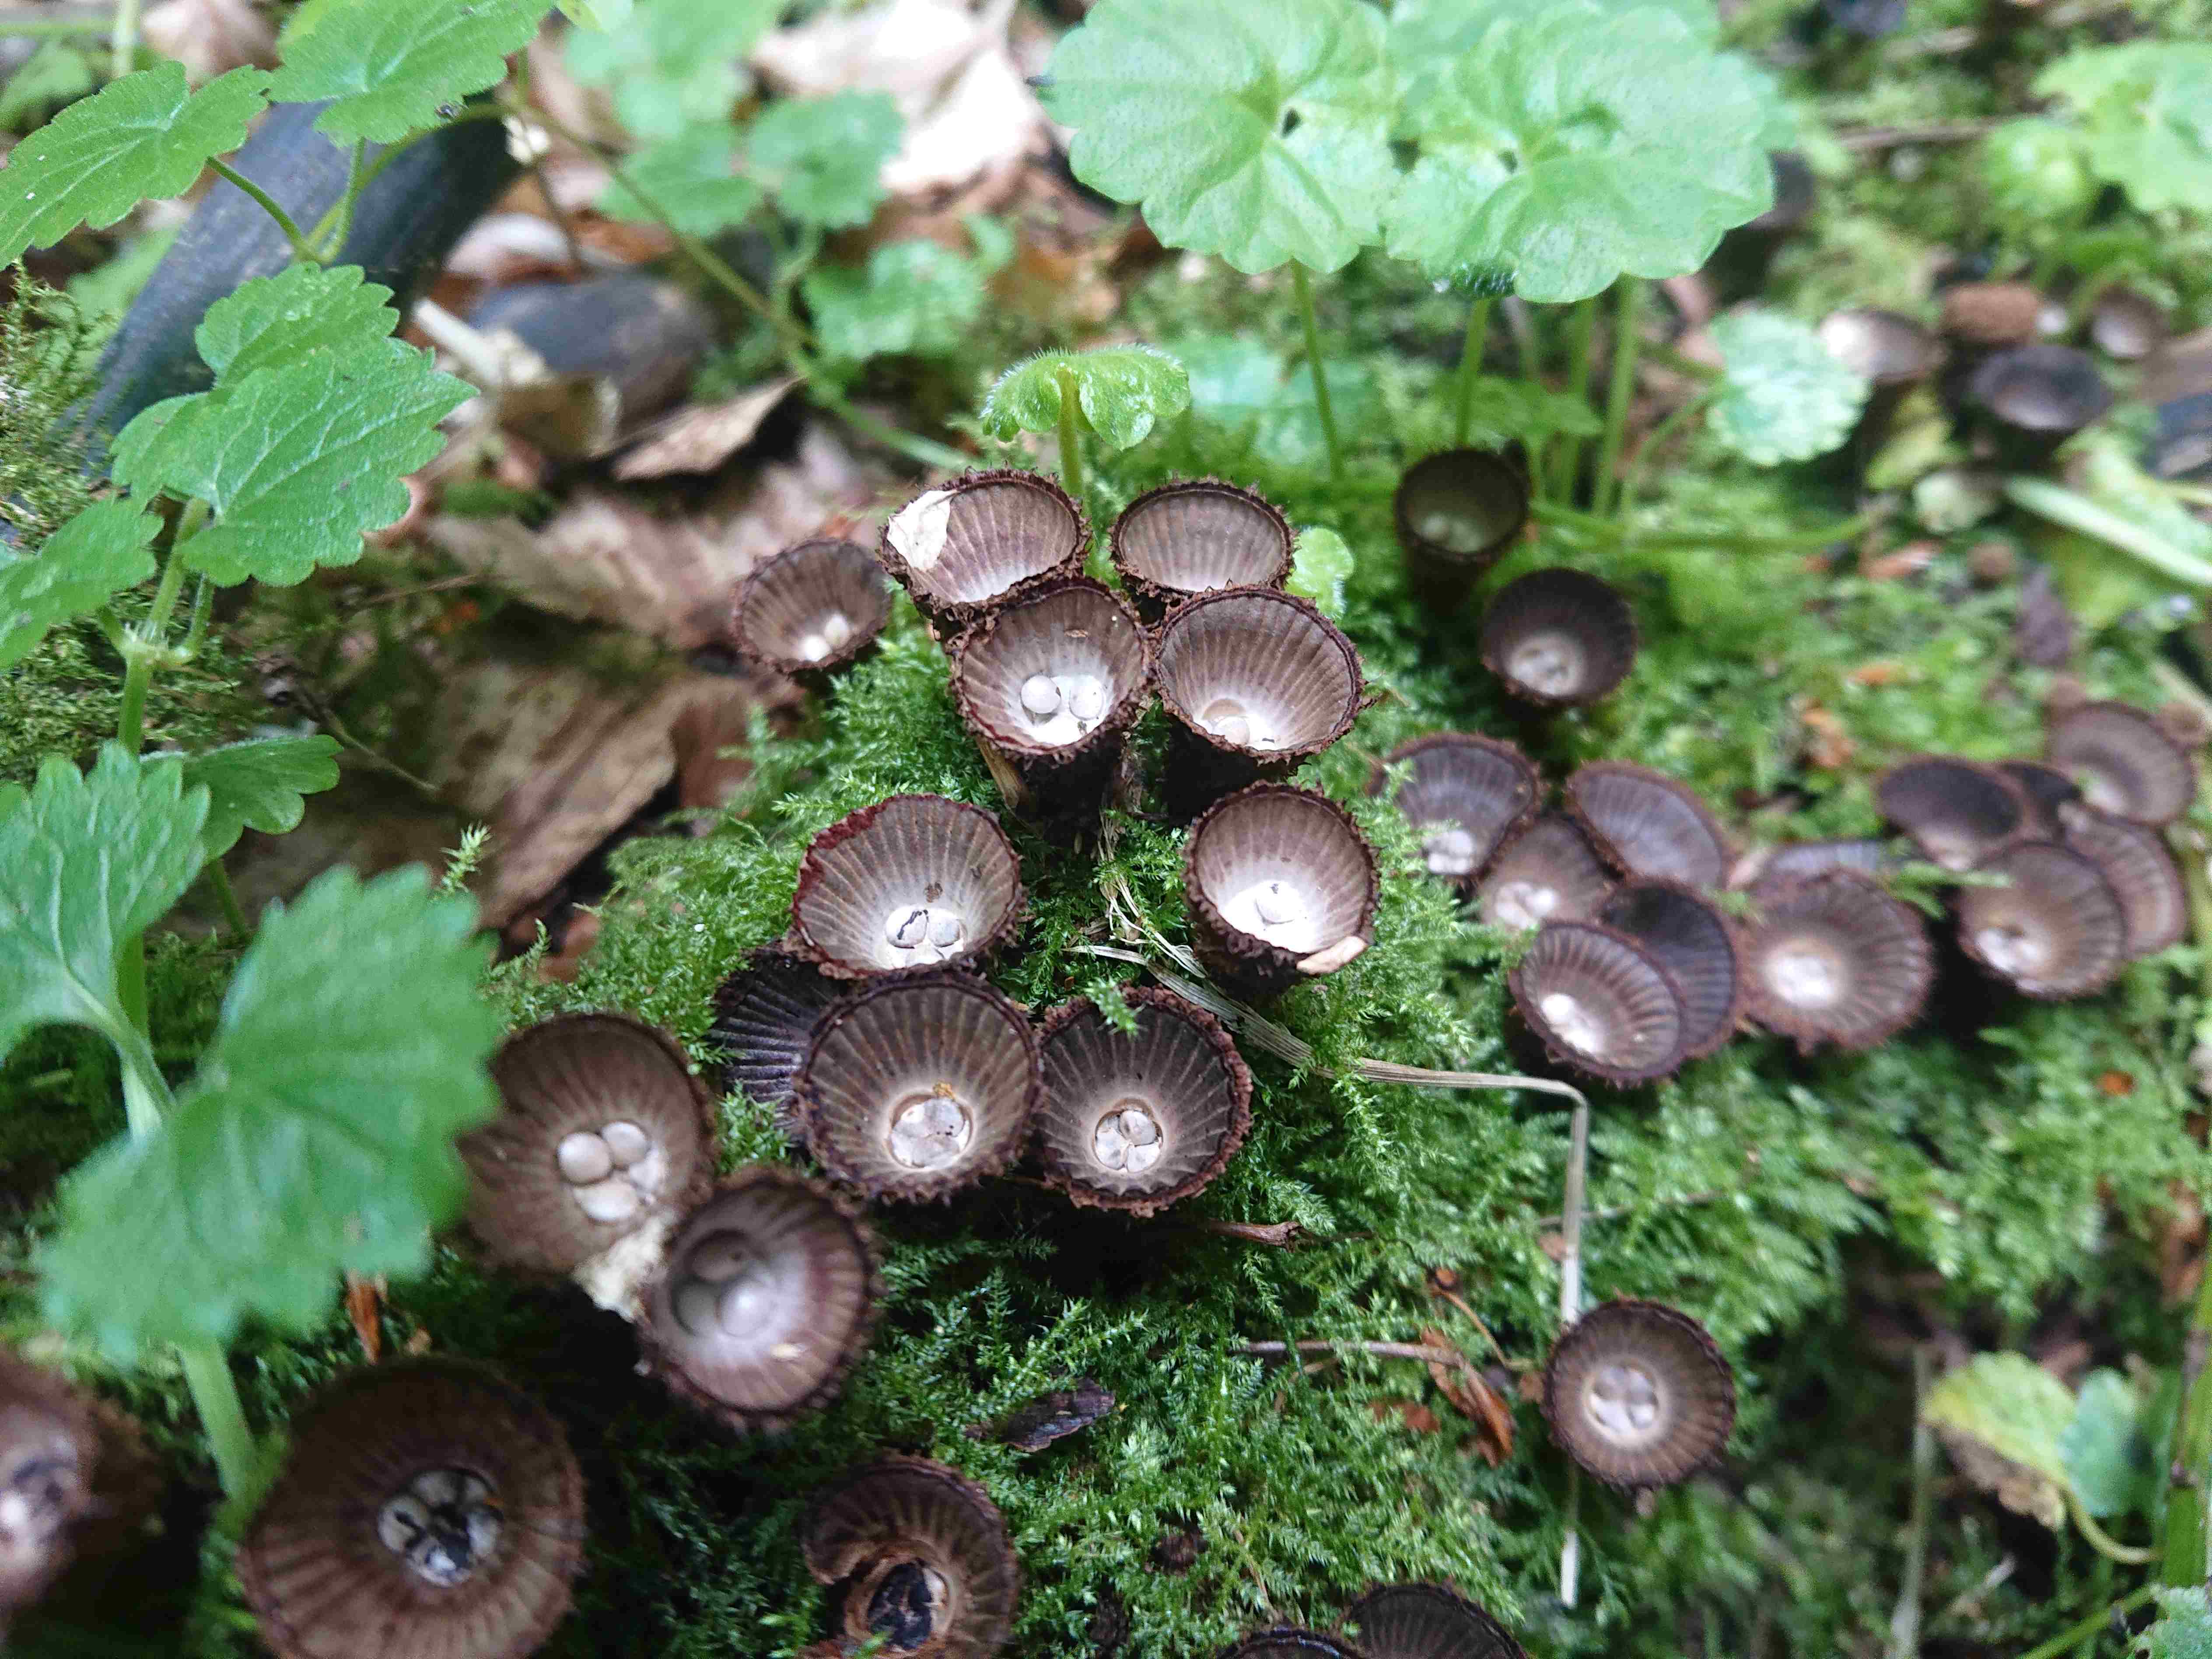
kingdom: Fungi
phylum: Basidiomycota
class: Agaricomycetes
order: Agaricales
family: Agaricaceae
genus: Cyathus
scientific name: Cyathus striatus
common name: stribet redesvamp
